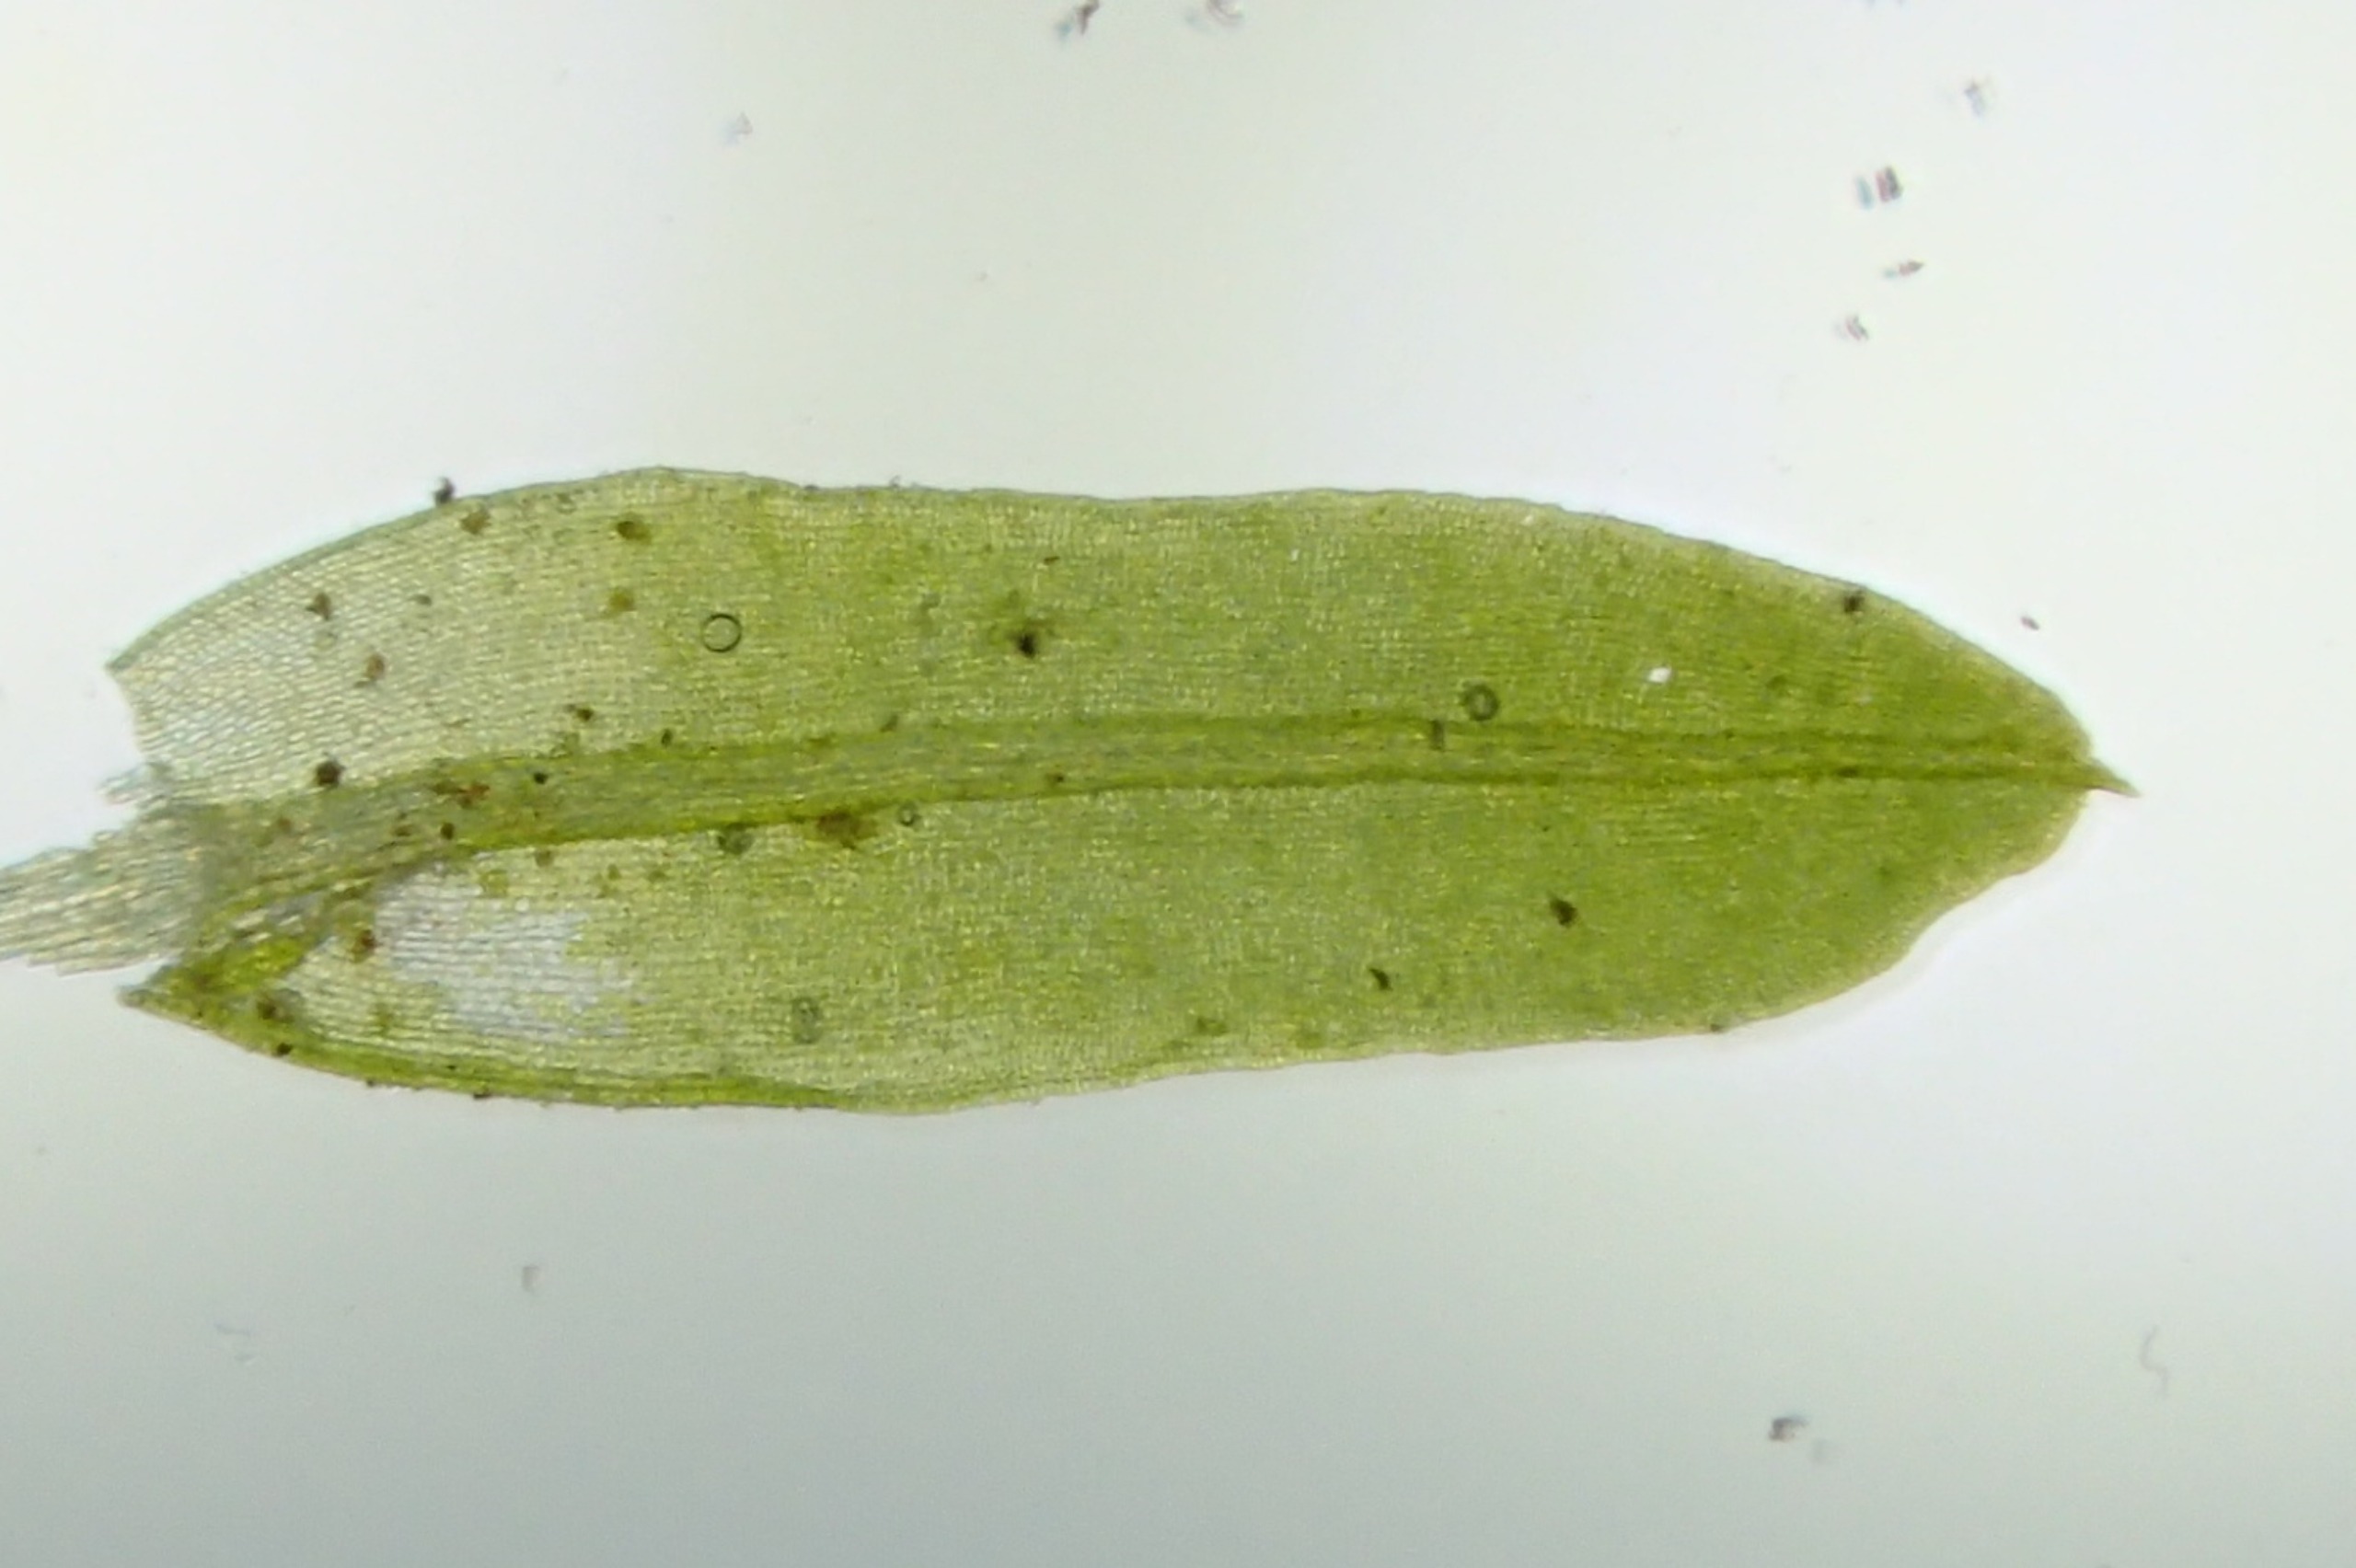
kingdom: Plantae
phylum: Bryophyta
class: Bryopsida
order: Pottiales
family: Pottiaceae
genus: Barbula
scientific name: Barbula unguiculata
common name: Almindelig skægtand
